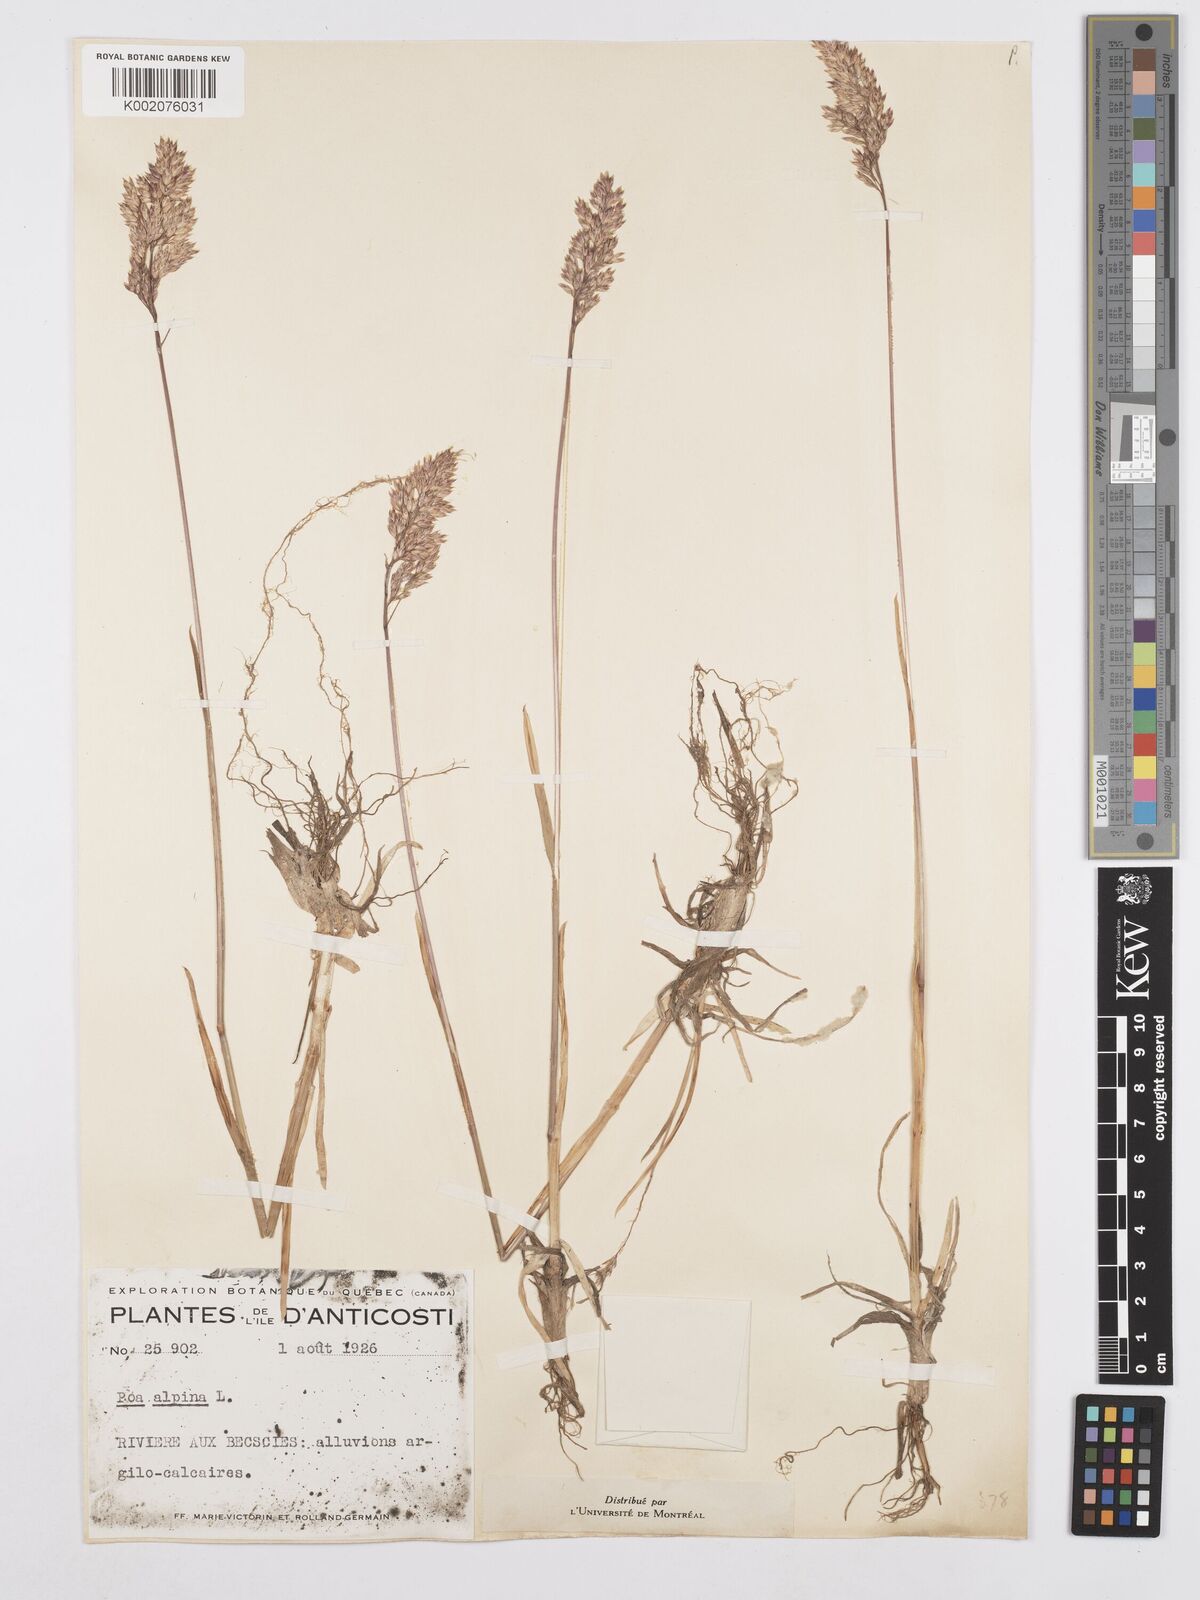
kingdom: Plantae
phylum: Tracheophyta
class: Liliopsida
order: Poales
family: Poaceae
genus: Poa
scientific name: Poa alpina
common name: Alpine bluegrass
